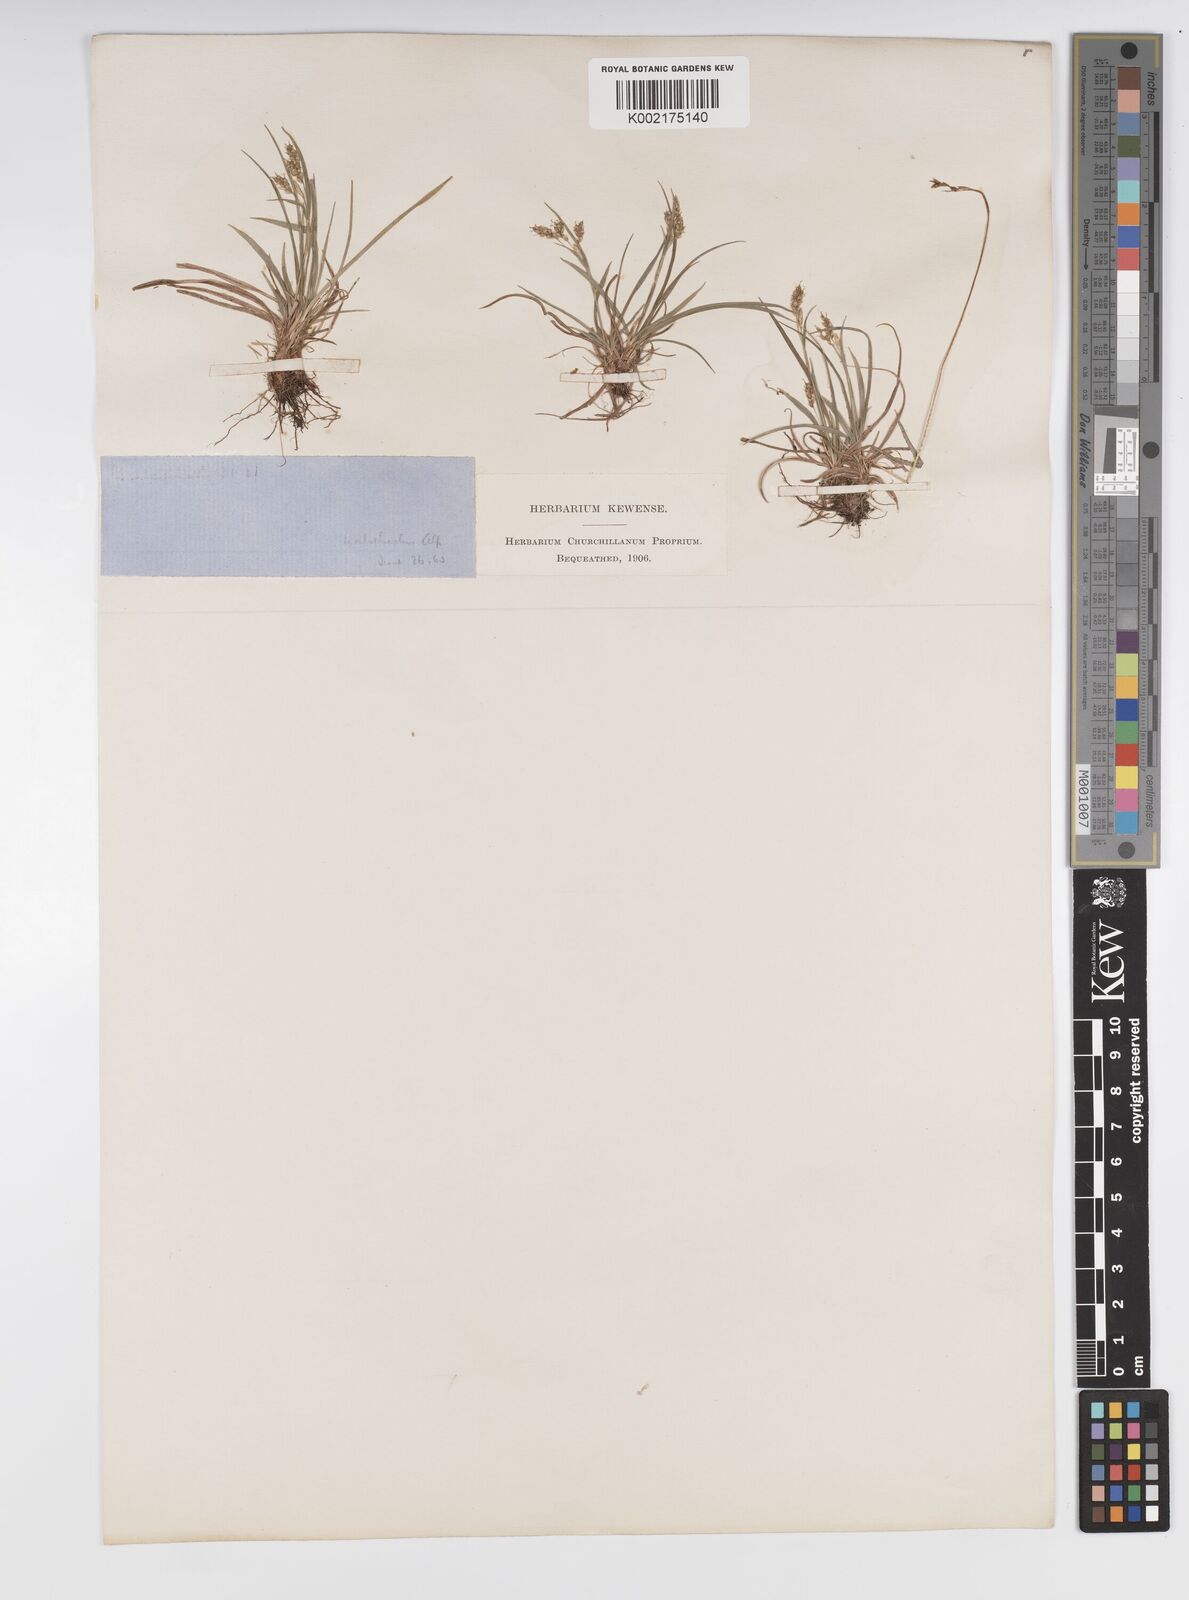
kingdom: Plantae
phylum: Tracheophyta
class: Liliopsida
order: Poales
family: Cyperaceae
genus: Carex
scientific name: Carex capillaris
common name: Hair sedge
